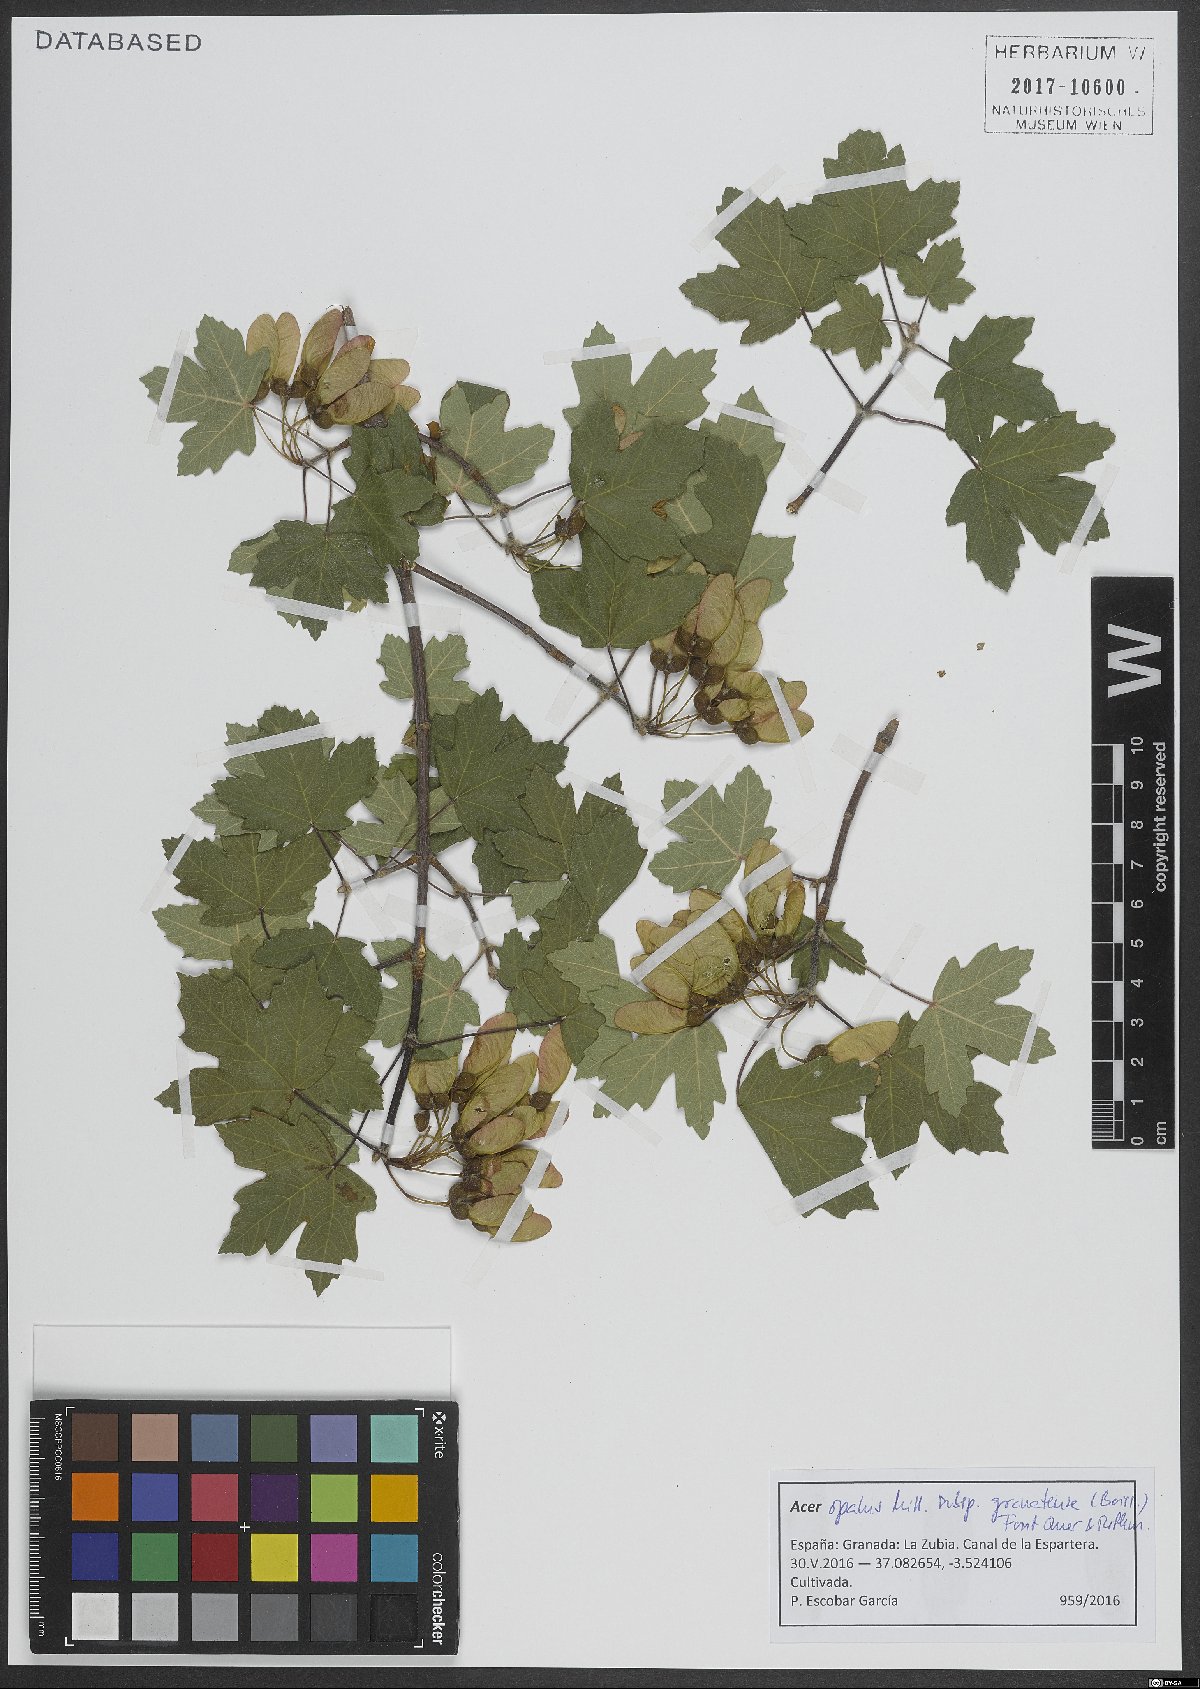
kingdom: Plantae
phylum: Tracheophyta
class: Magnoliopsida
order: Sapindales
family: Sapindaceae
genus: Acer
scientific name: Acer granatense
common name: Spanish maple
